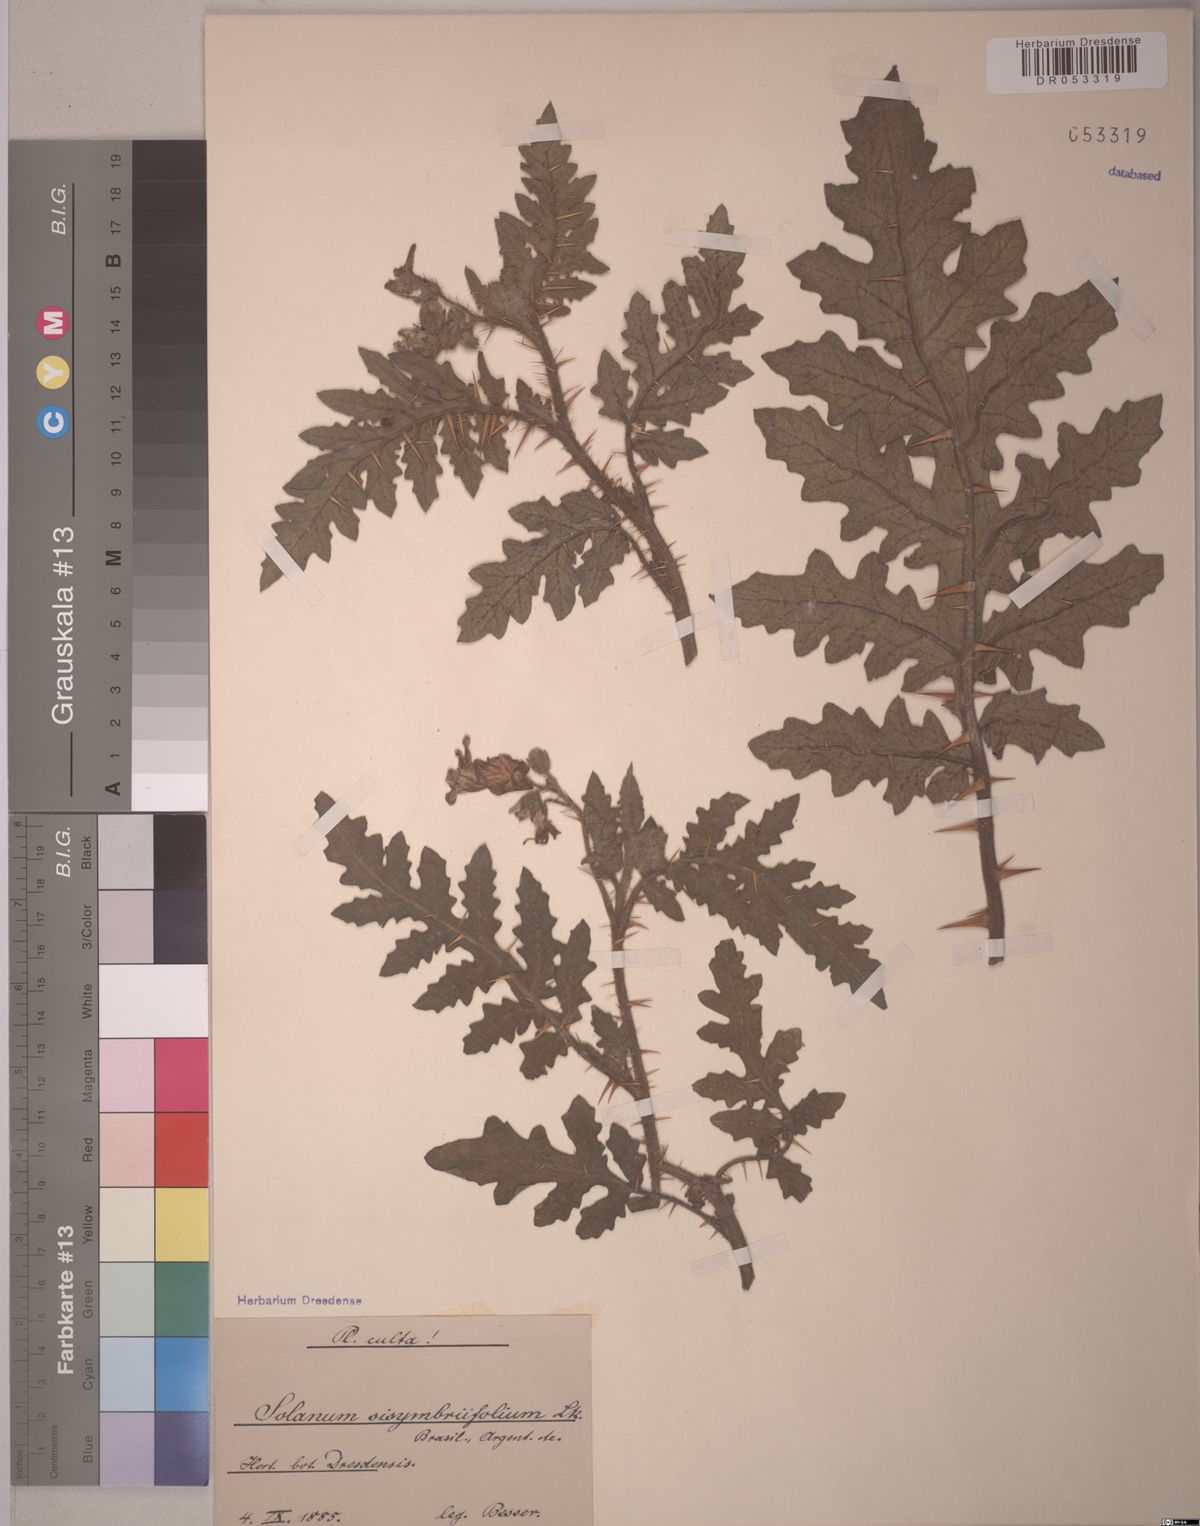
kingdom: Plantae
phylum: Tracheophyta
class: Magnoliopsida
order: Solanales
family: Solanaceae
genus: Solanum
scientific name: Solanum sisymbriifolium
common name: Red buffalo-bur
